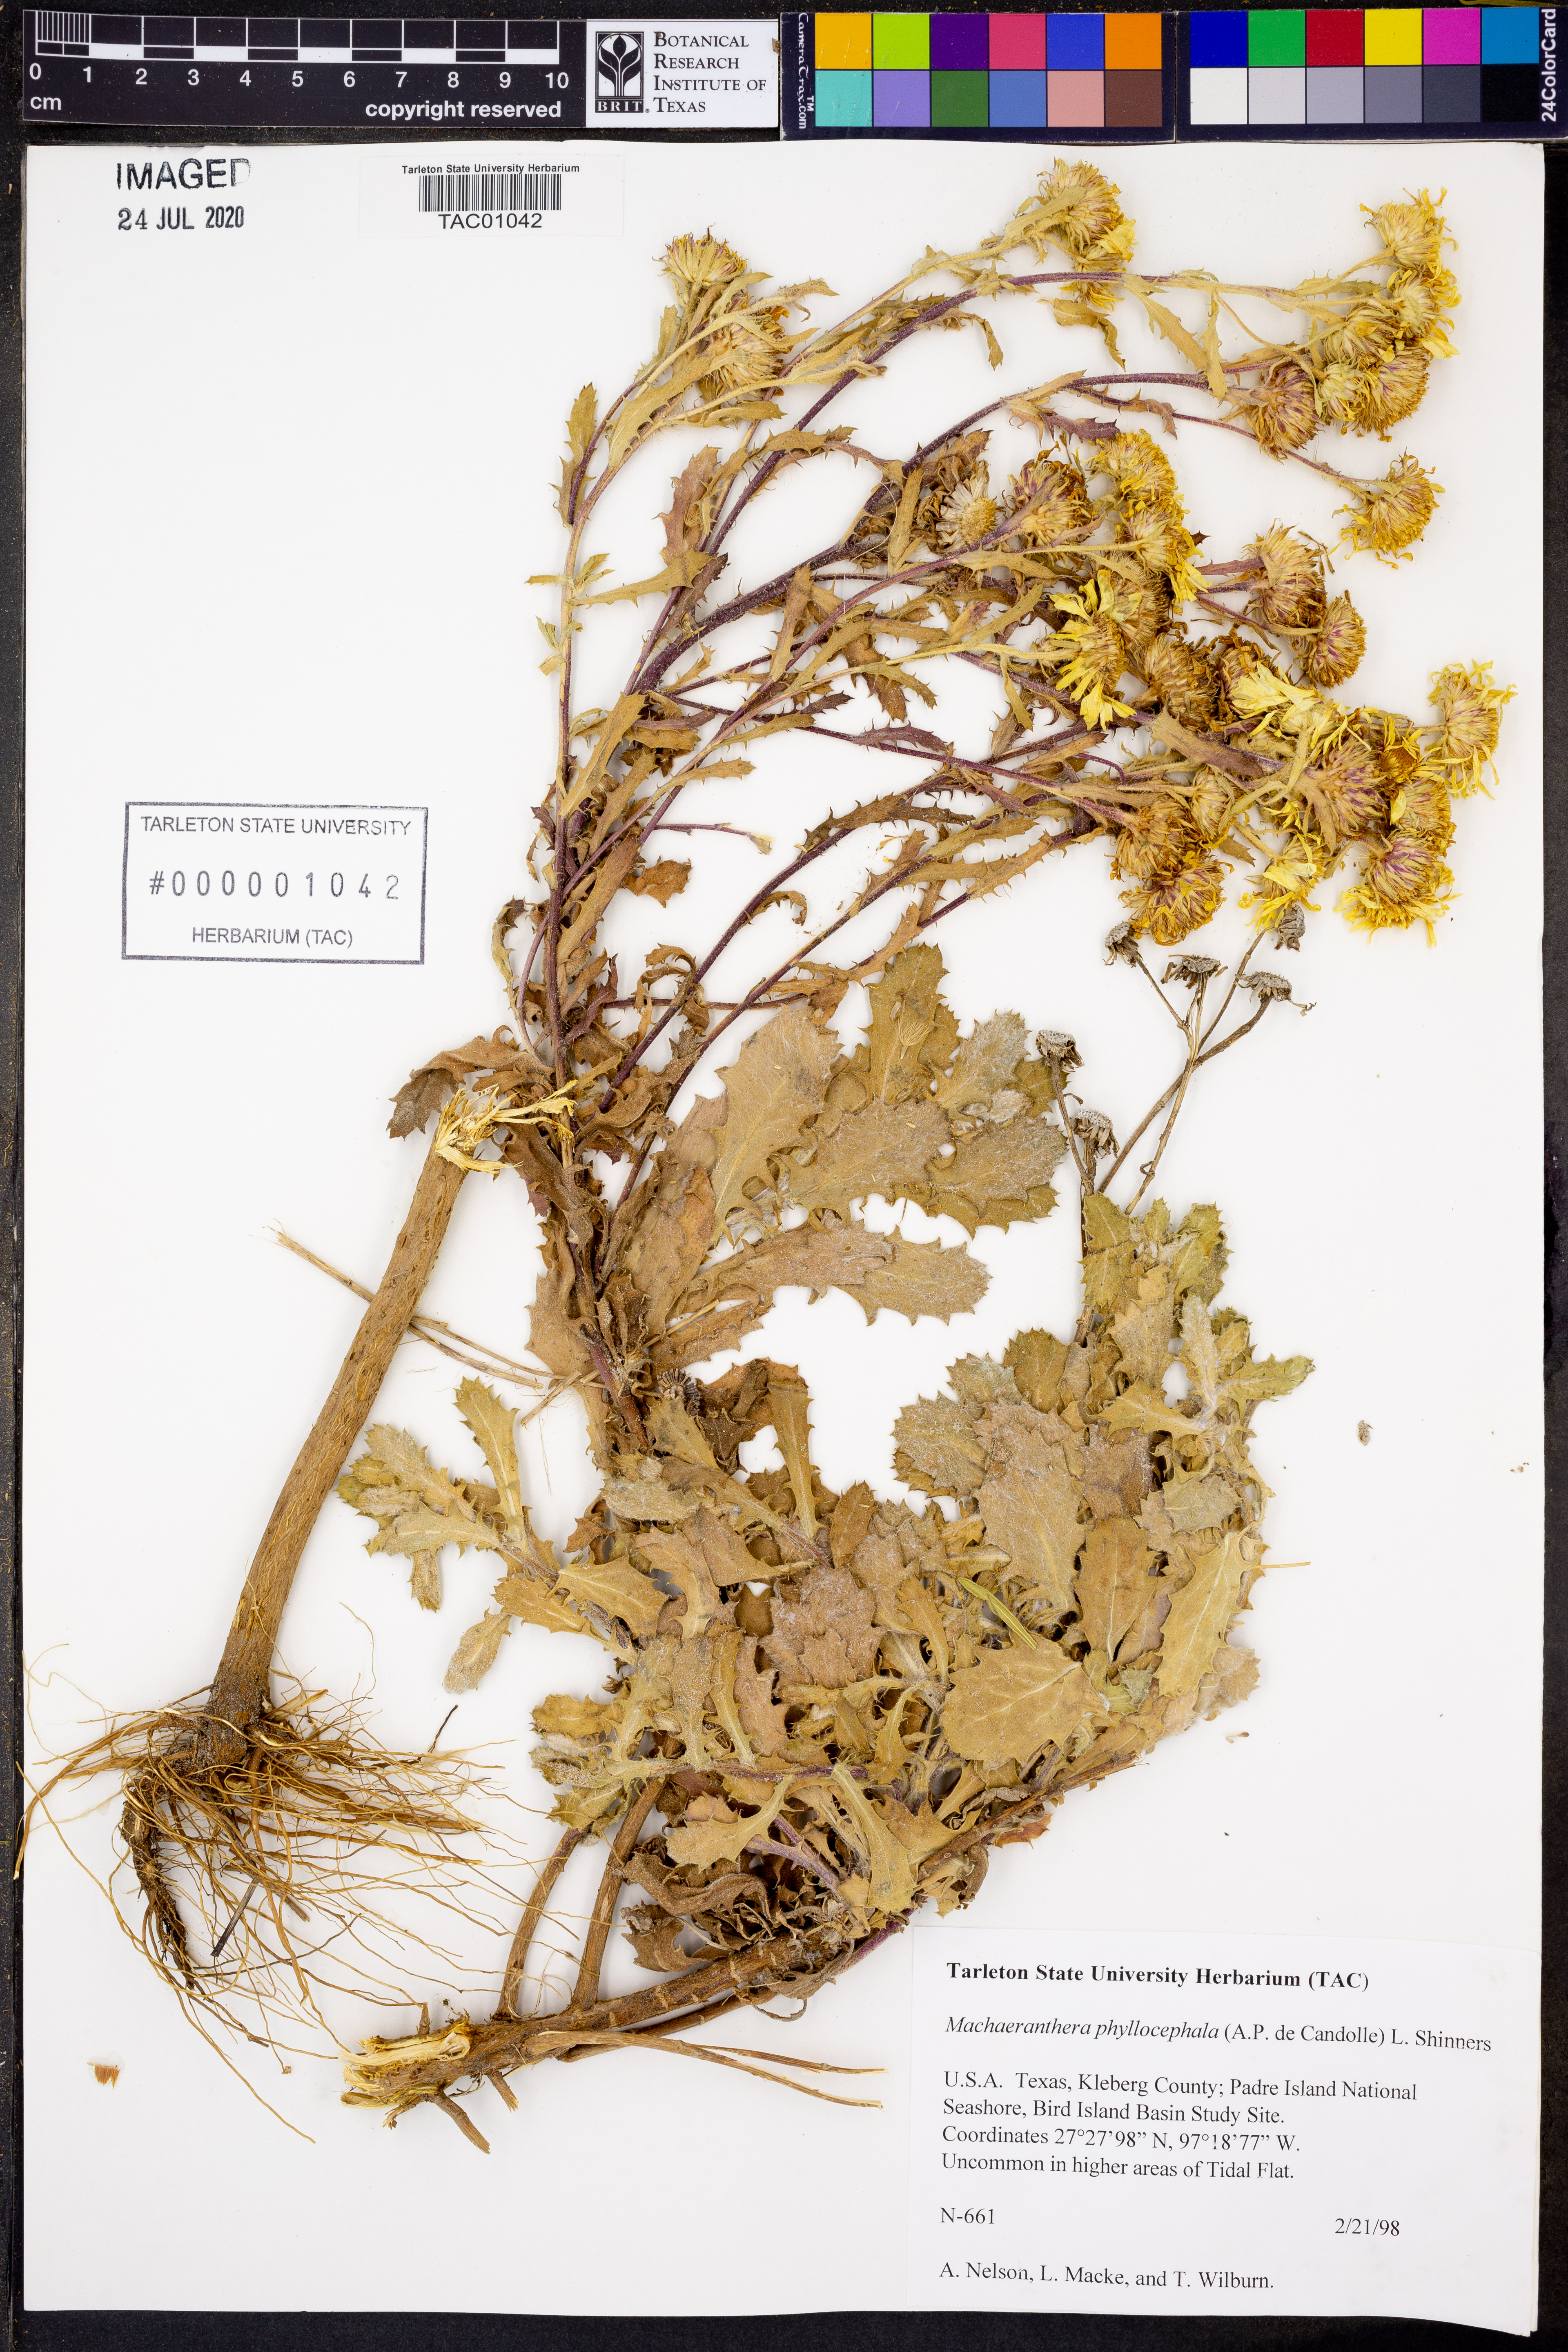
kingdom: Plantae
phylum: Tracheophyta
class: Magnoliopsida
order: Asterales
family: Asteraceae
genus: Rayjacksonia
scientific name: Rayjacksonia phyllocephala
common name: Gulf coast camphor daisy
